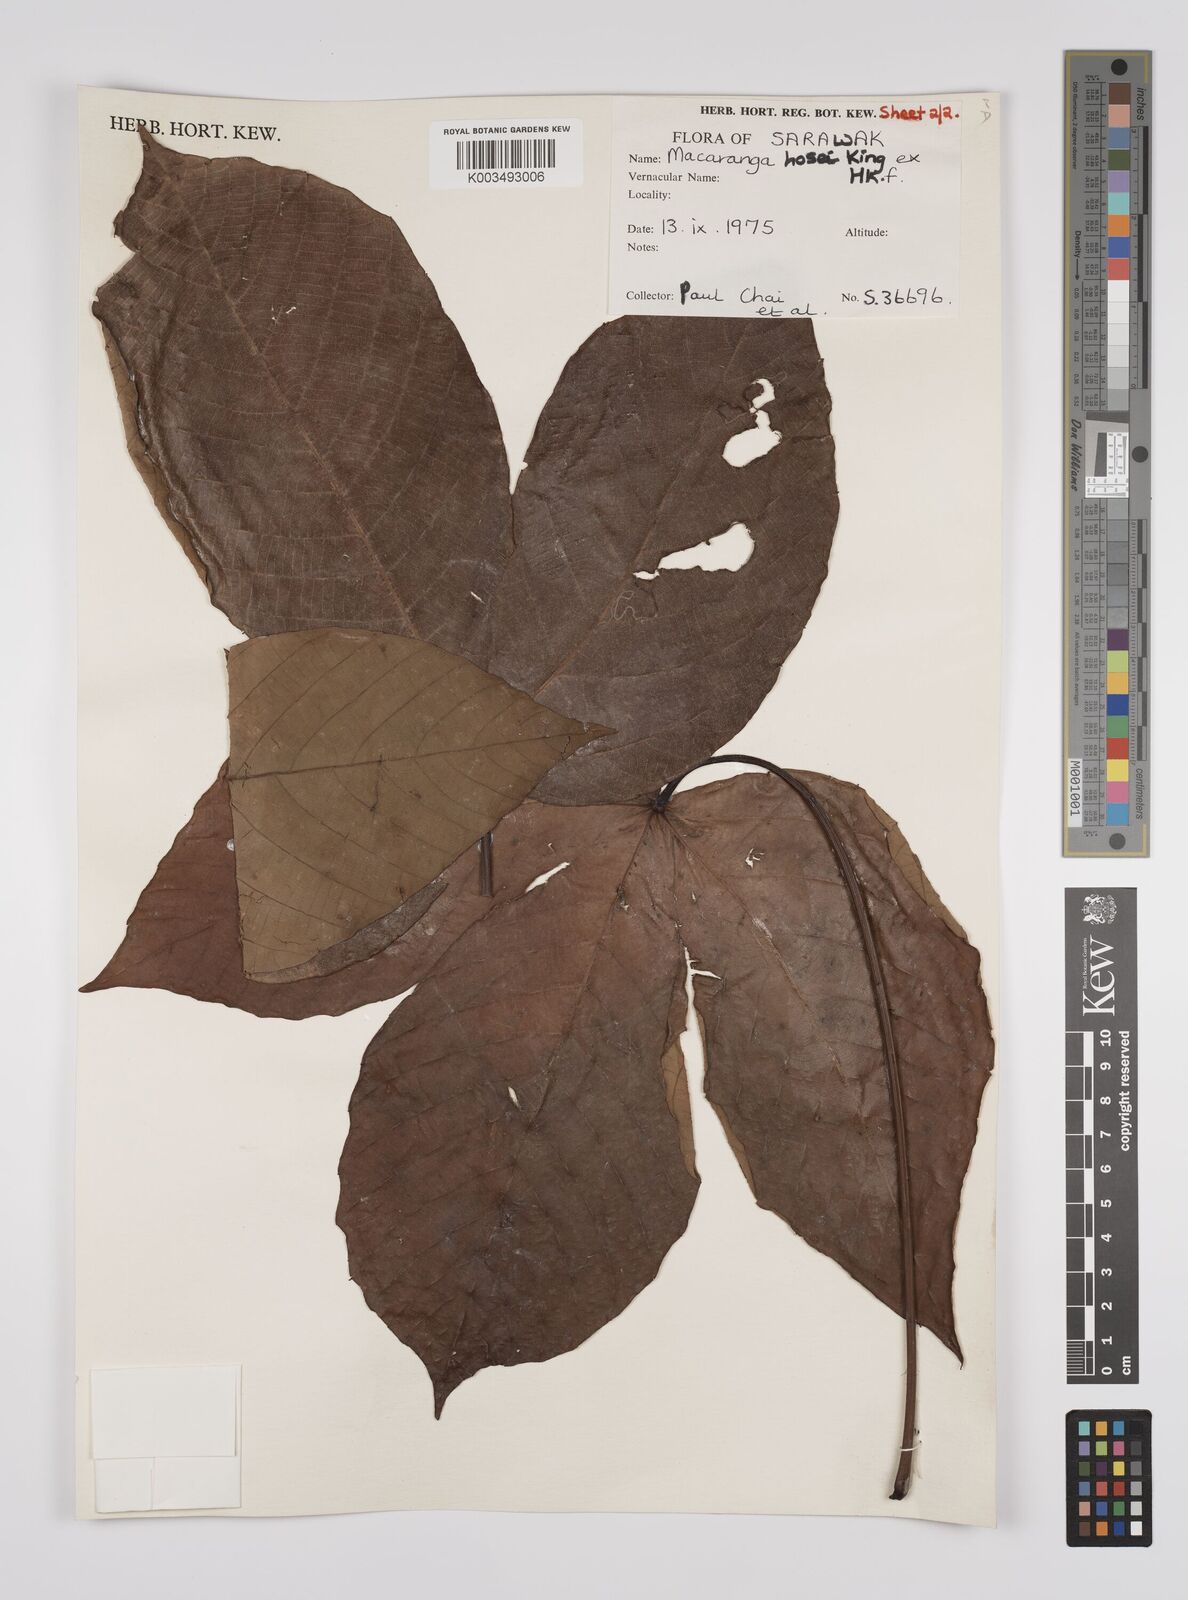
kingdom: Plantae
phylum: Tracheophyta
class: Magnoliopsida
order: Malpighiales
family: Euphorbiaceae
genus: Macaranga
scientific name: Macaranga hosei
